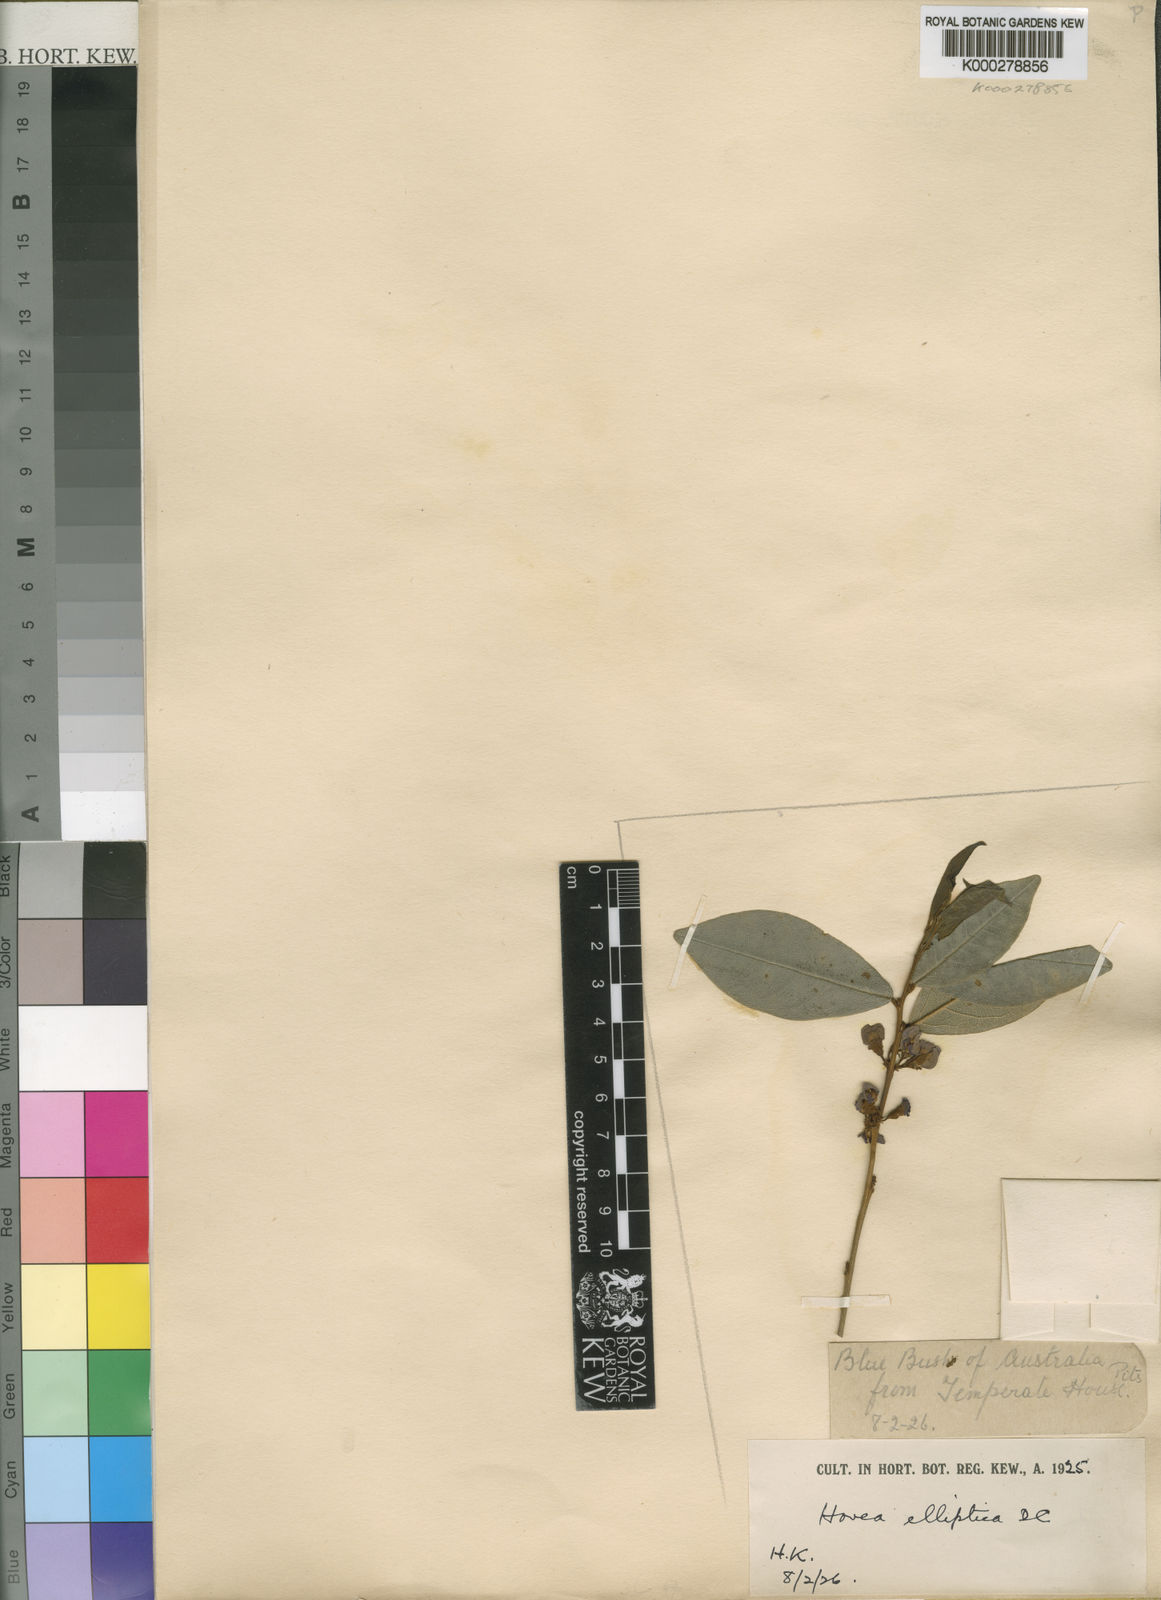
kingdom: Plantae
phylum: Tracheophyta
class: Magnoliopsida
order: Fabales
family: Fabaceae
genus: Hovea
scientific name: Hovea elliptica
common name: Tree hovea
